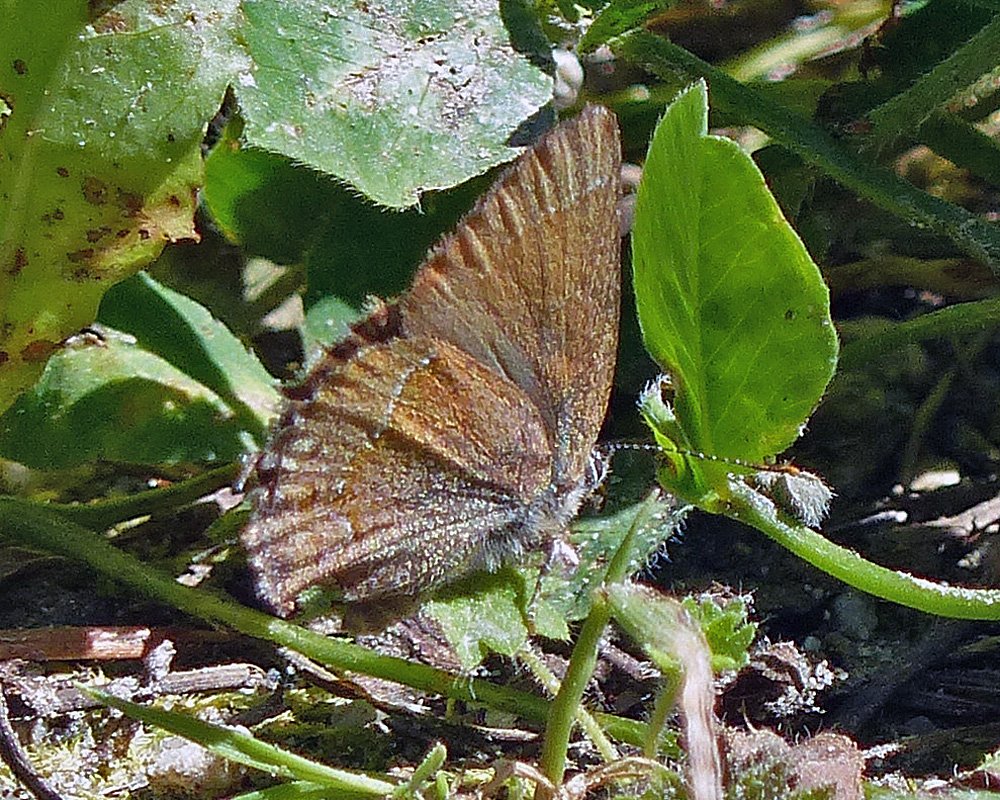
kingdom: Animalia
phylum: Arthropoda
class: Insecta
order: Lepidoptera
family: Lycaenidae
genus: Mitoura
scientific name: Mitoura nelsoni
